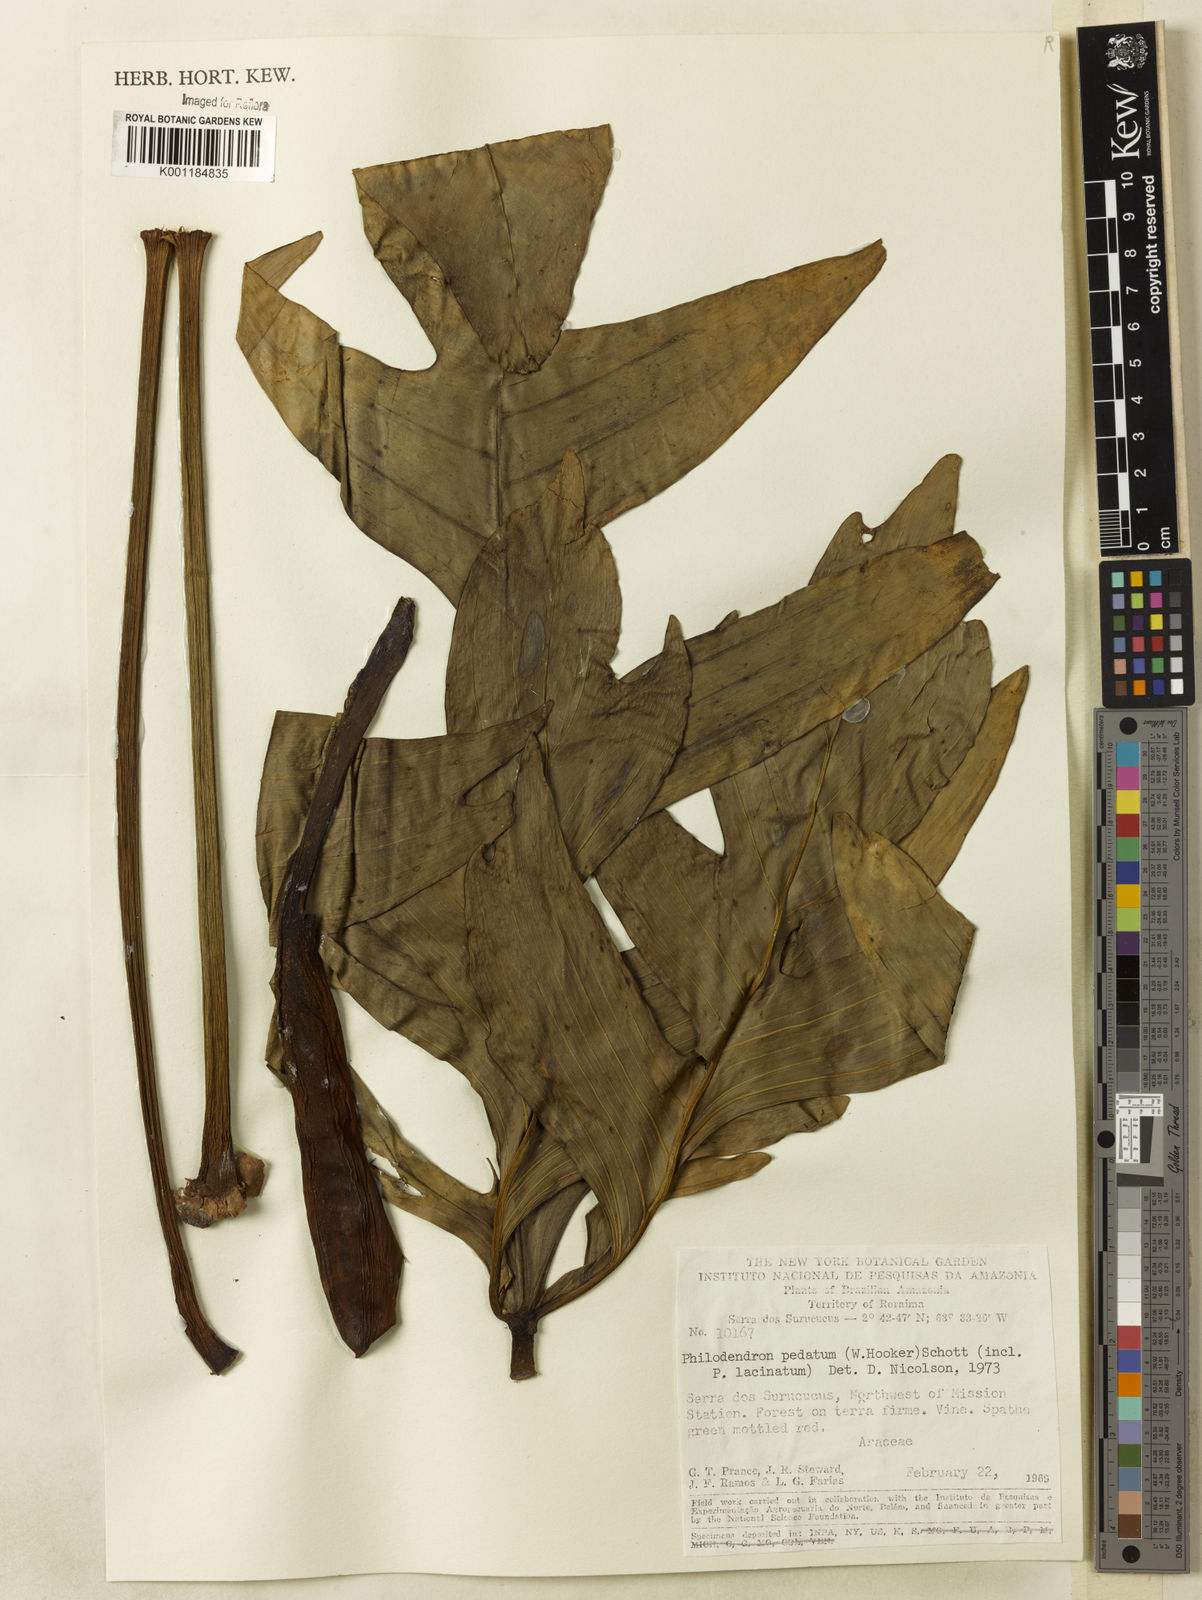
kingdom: Plantae
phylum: Tracheophyta
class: Liliopsida
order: Alismatales
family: Araceae
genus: Philodendron
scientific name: Philodendron pedatum
